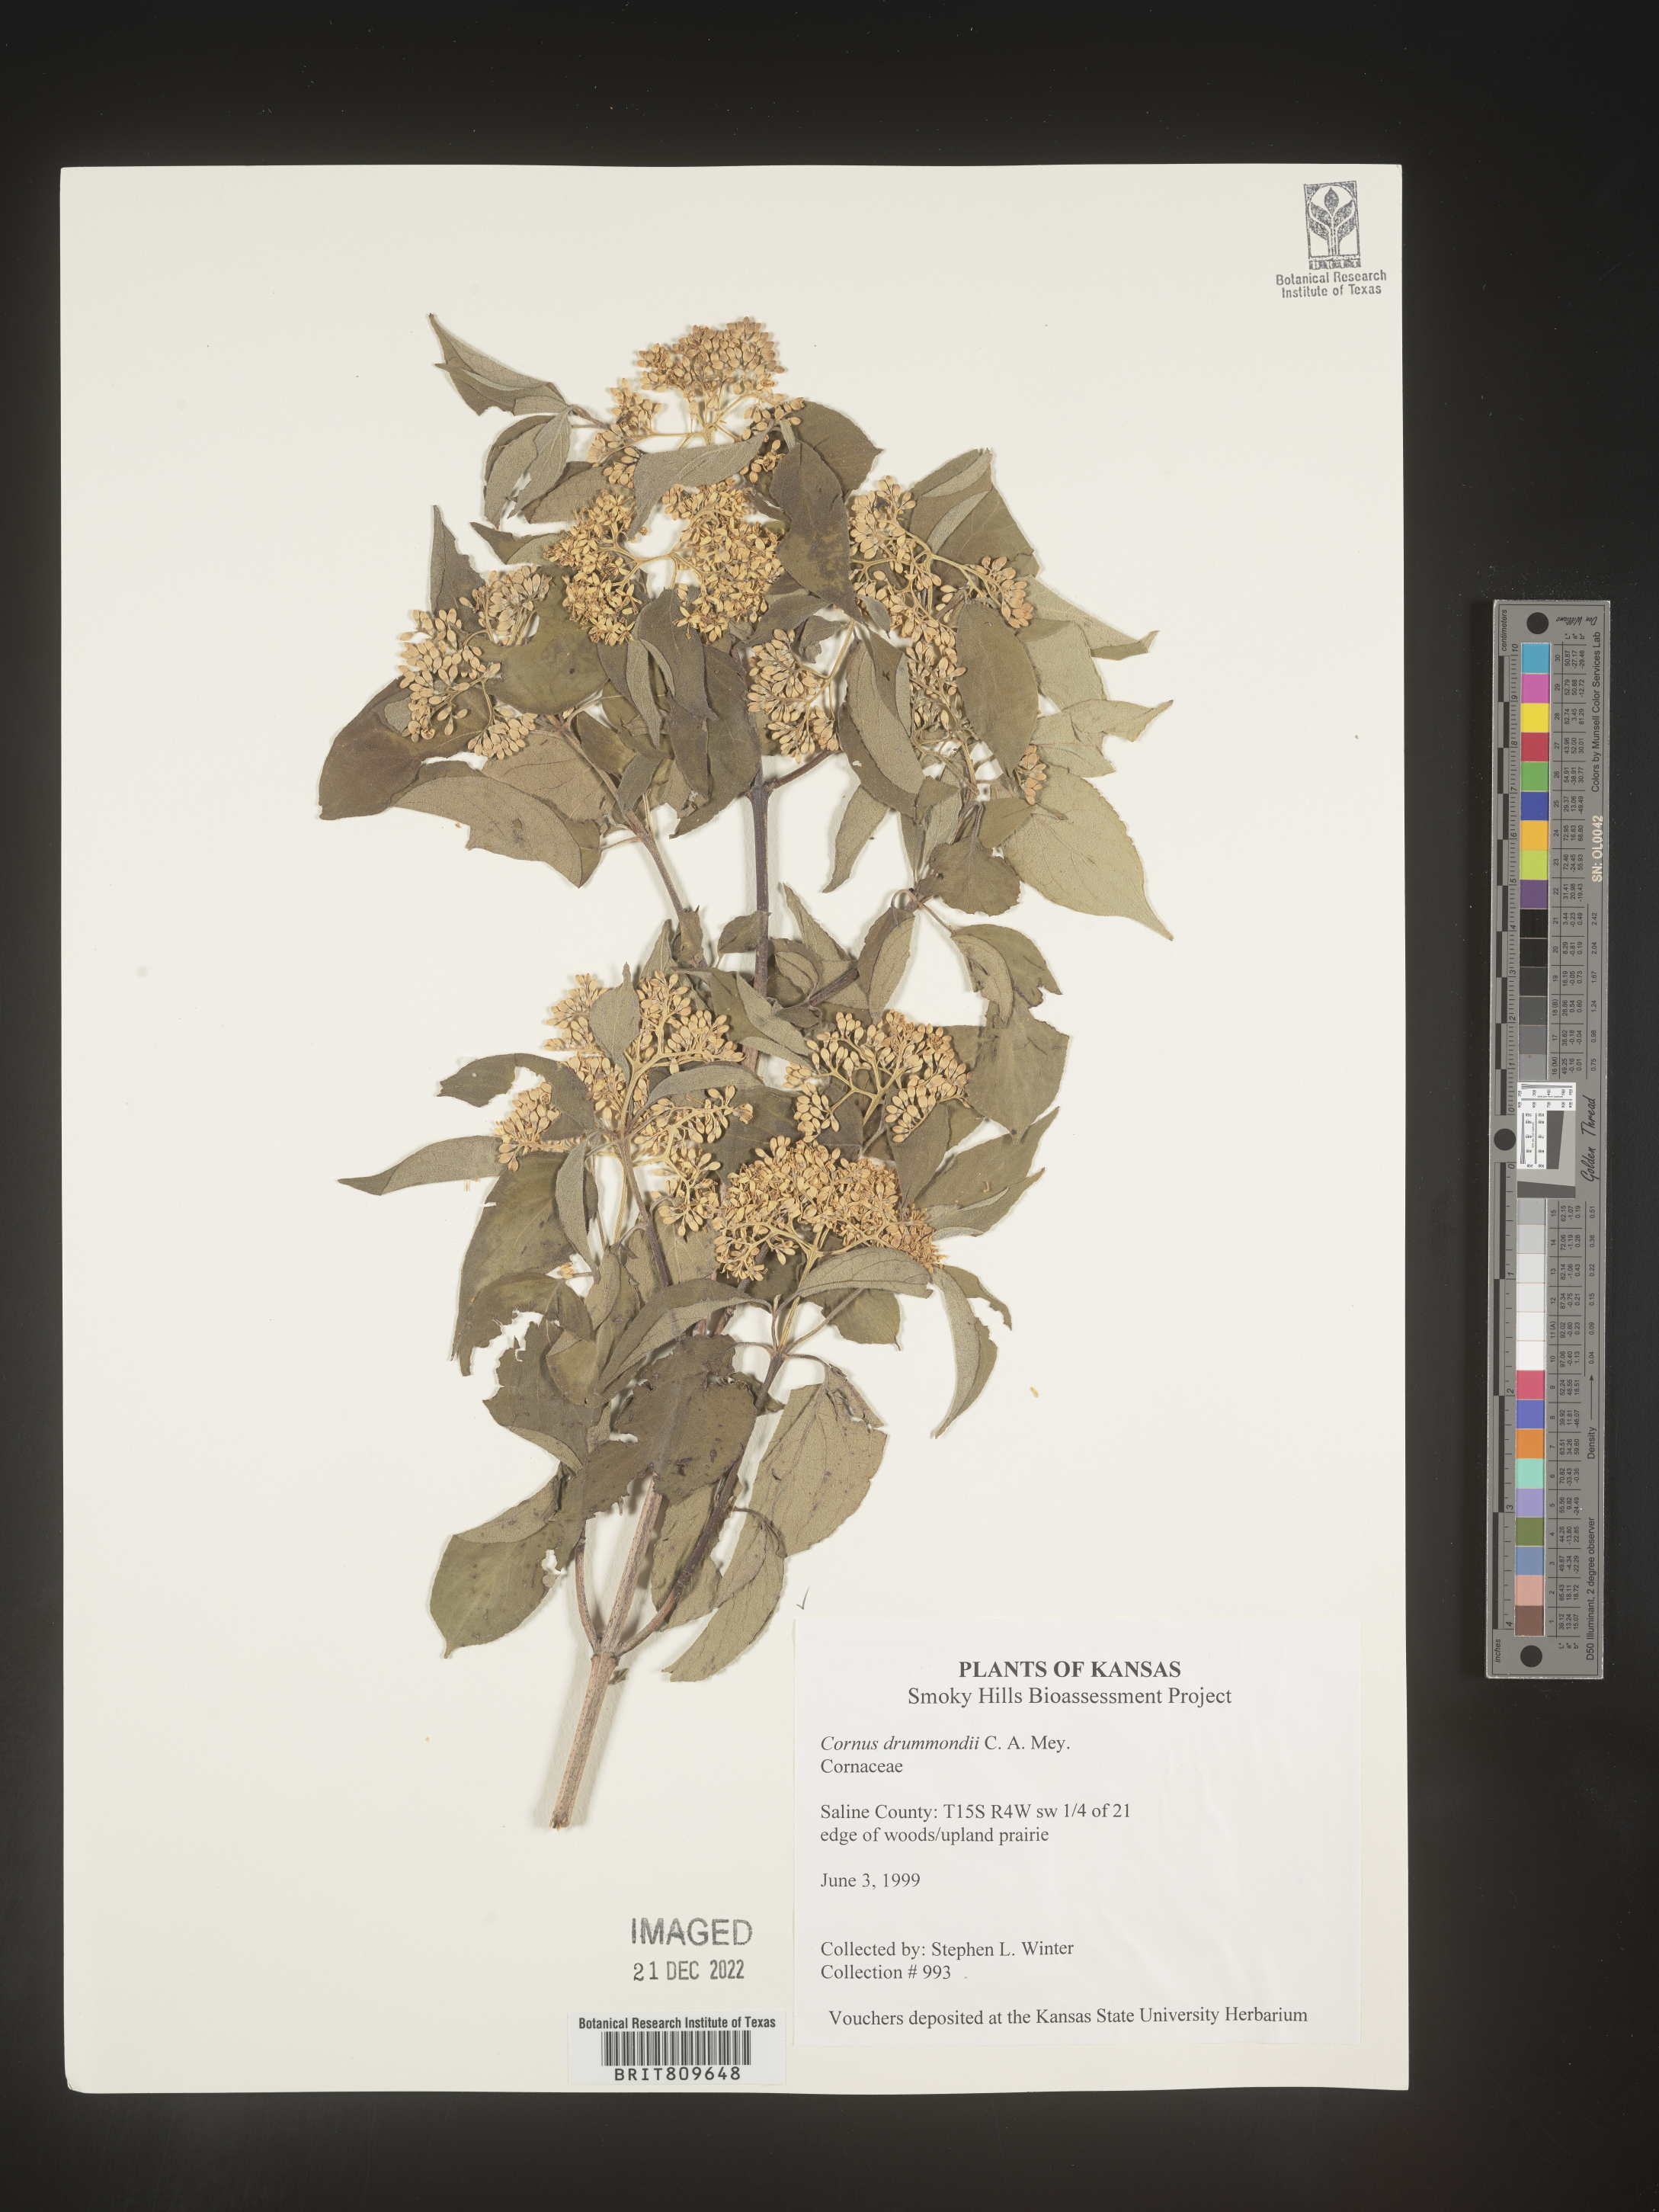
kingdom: Plantae
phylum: Tracheophyta
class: Magnoliopsida
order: Cornales
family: Cornaceae
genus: Cornus
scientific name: Cornus drummondii
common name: Rough-leaf dogwood
